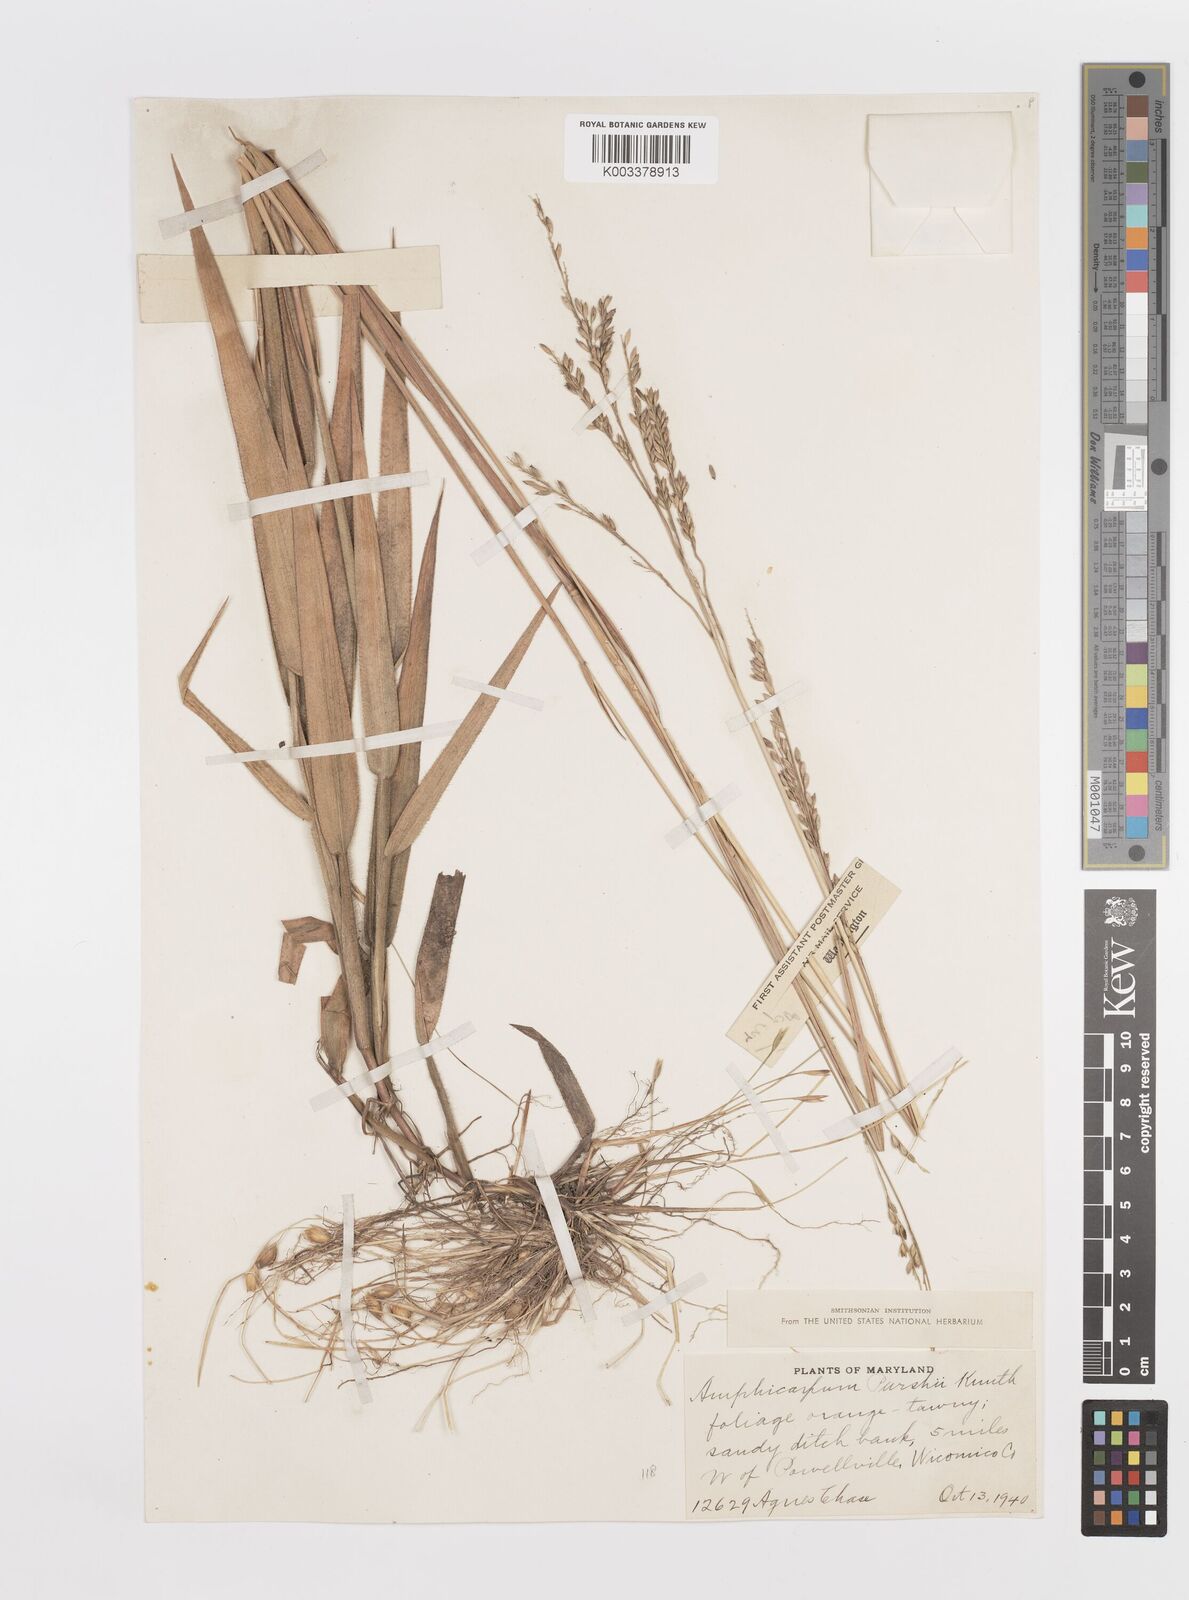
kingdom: Plantae
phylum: Tracheophyta
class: Liliopsida
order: Poales
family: Poaceae
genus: Amphicarpum
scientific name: Amphicarpum
